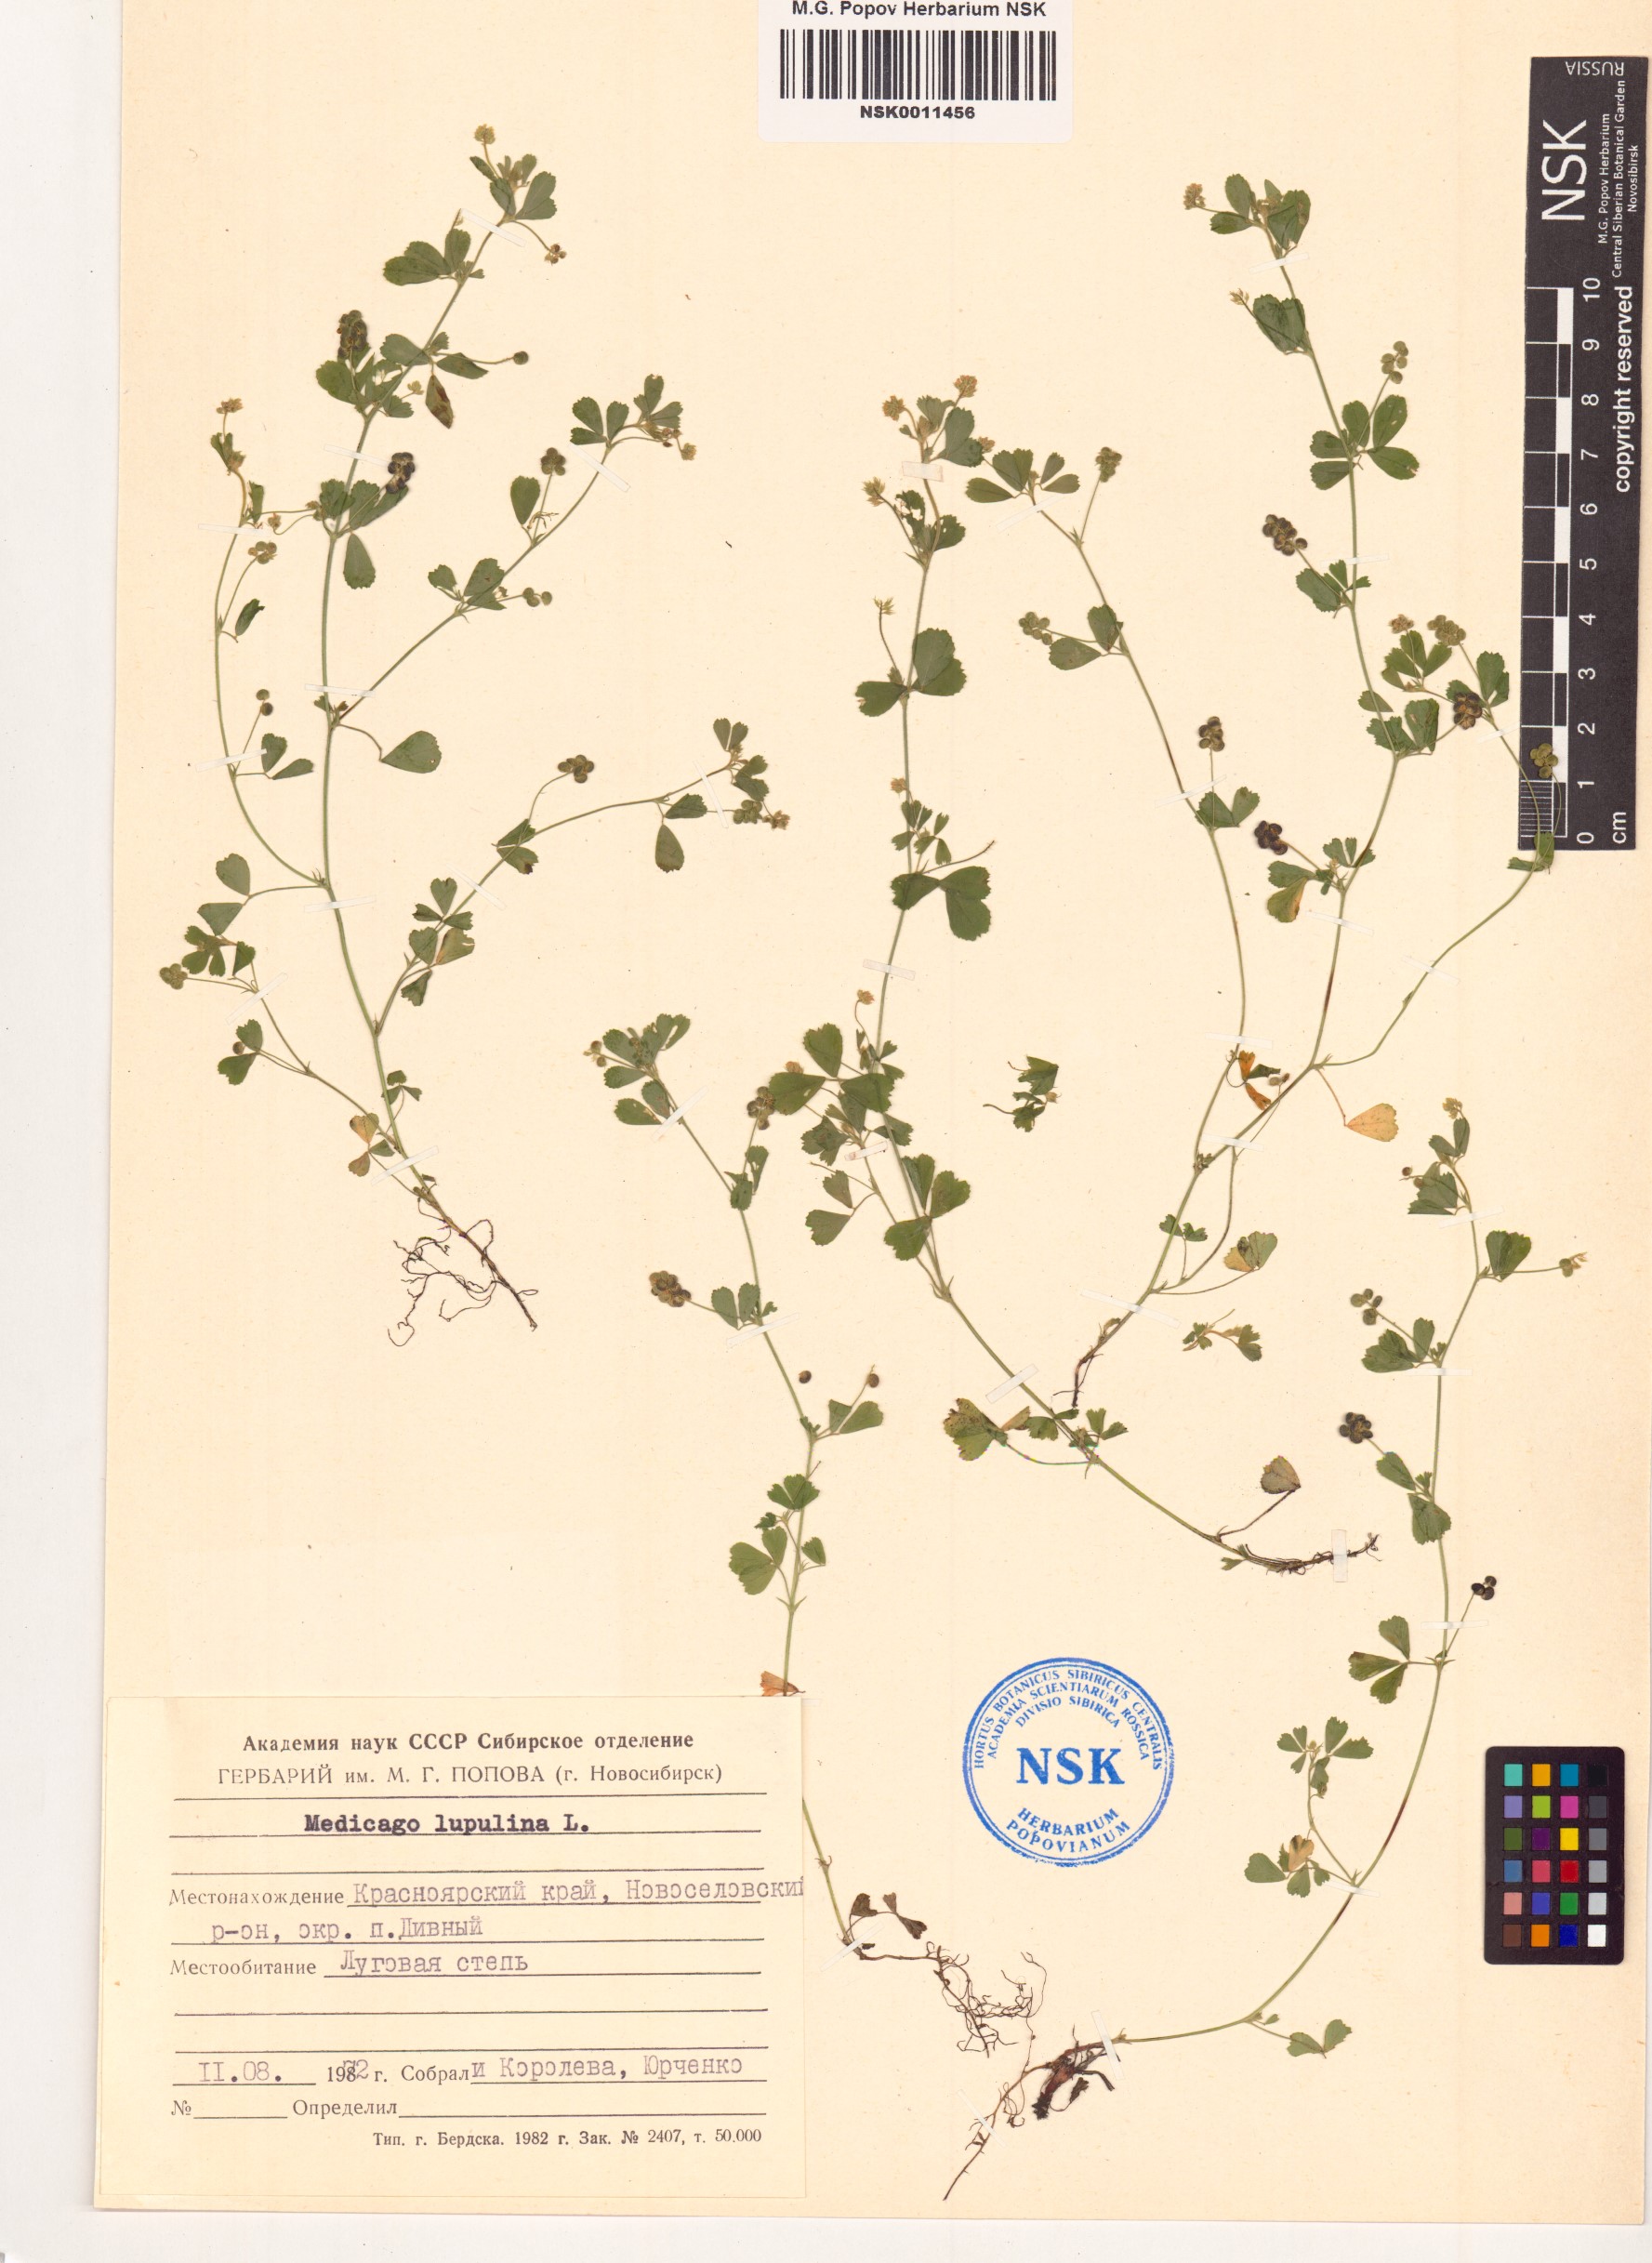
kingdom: Plantae
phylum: Tracheophyta
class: Magnoliopsida
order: Fabales
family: Fabaceae
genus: Medicago
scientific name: Medicago lupulina
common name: Black medick
